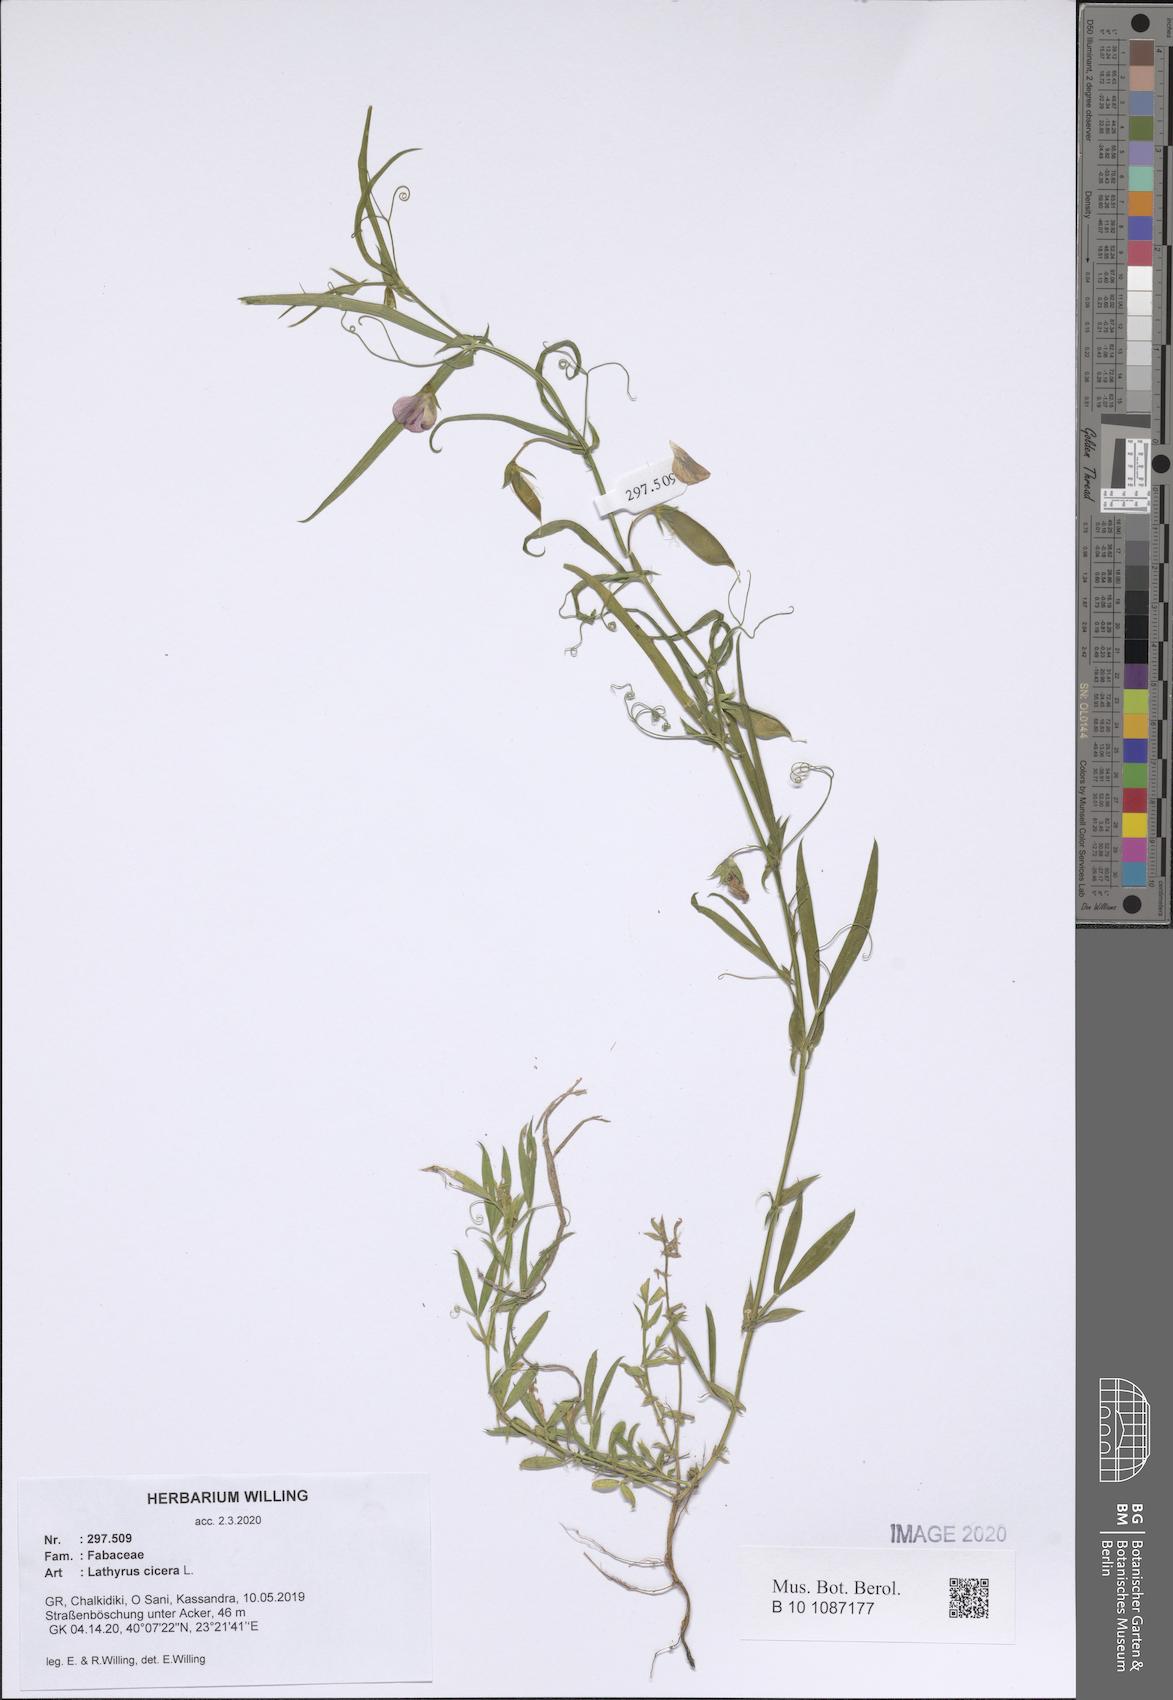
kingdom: Plantae
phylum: Tracheophyta
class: Magnoliopsida
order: Fabales
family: Fabaceae
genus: Lathyrus
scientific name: Lathyrus cicera
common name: Red vetchling
